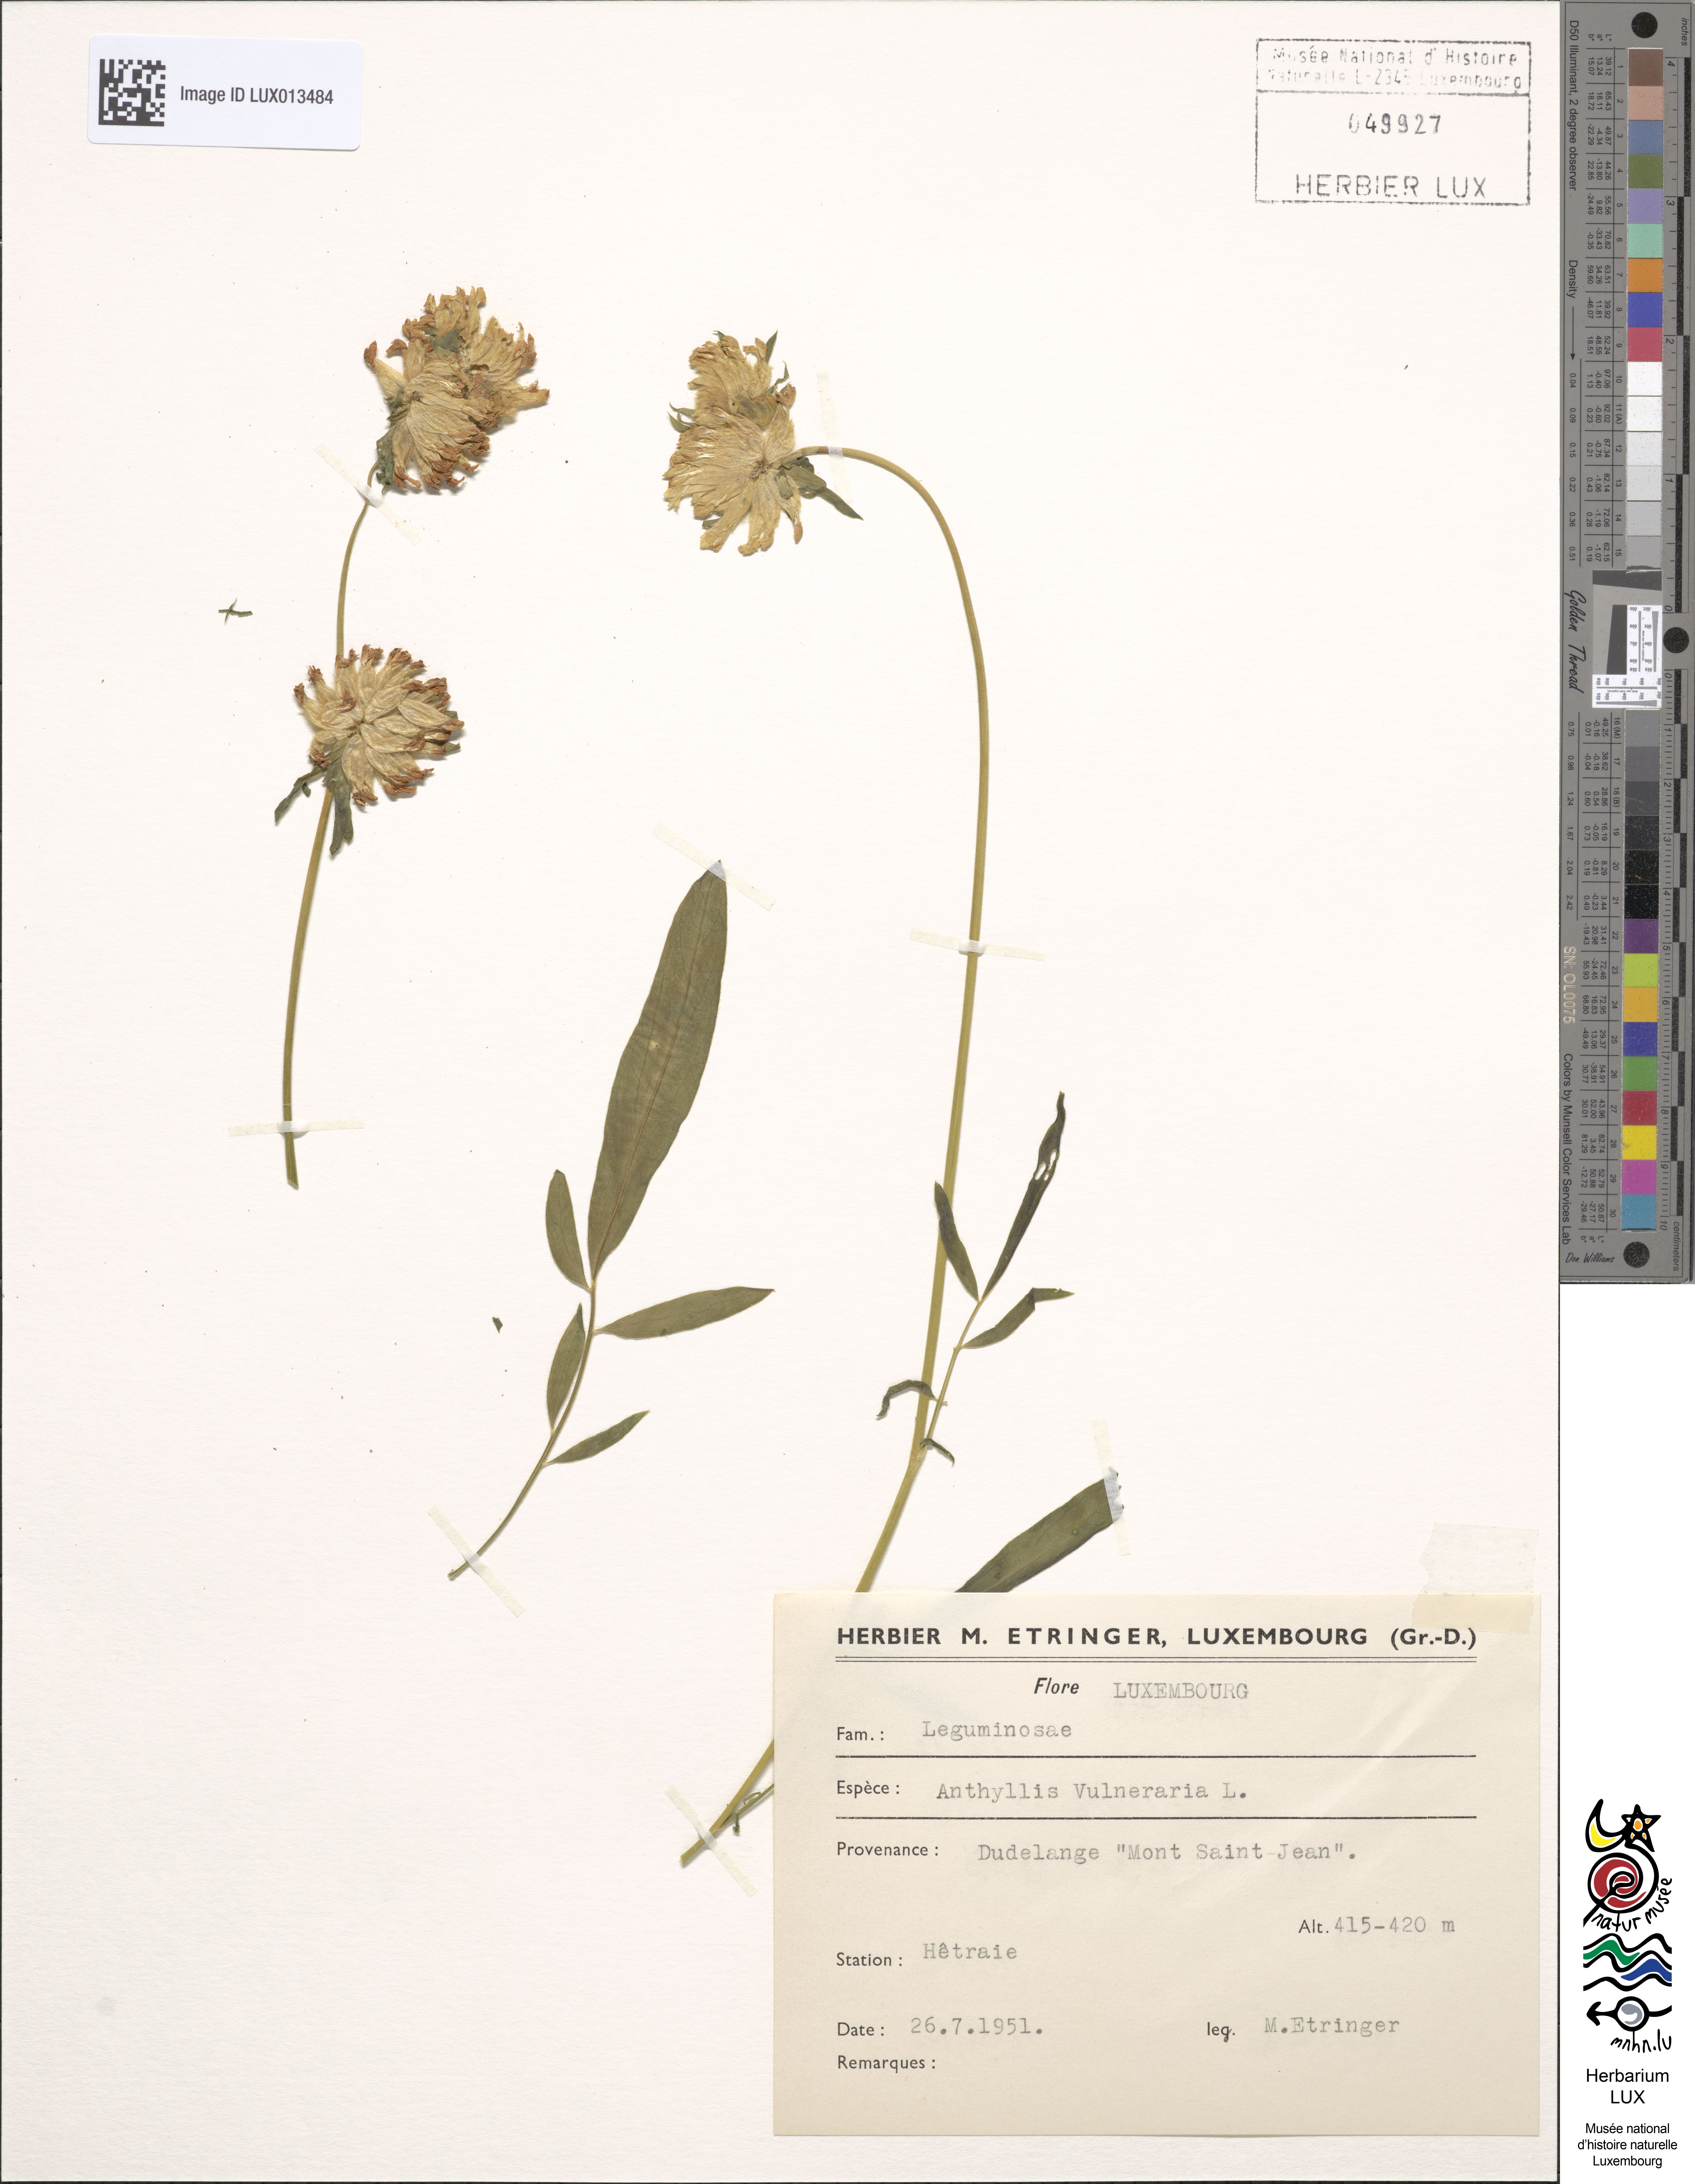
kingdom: Plantae
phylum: Tracheophyta
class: Magnoliopsida
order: Fabales
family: Fabaceae
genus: Anthyllis
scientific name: Anthyllis vulneraria
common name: Kidney vetch
